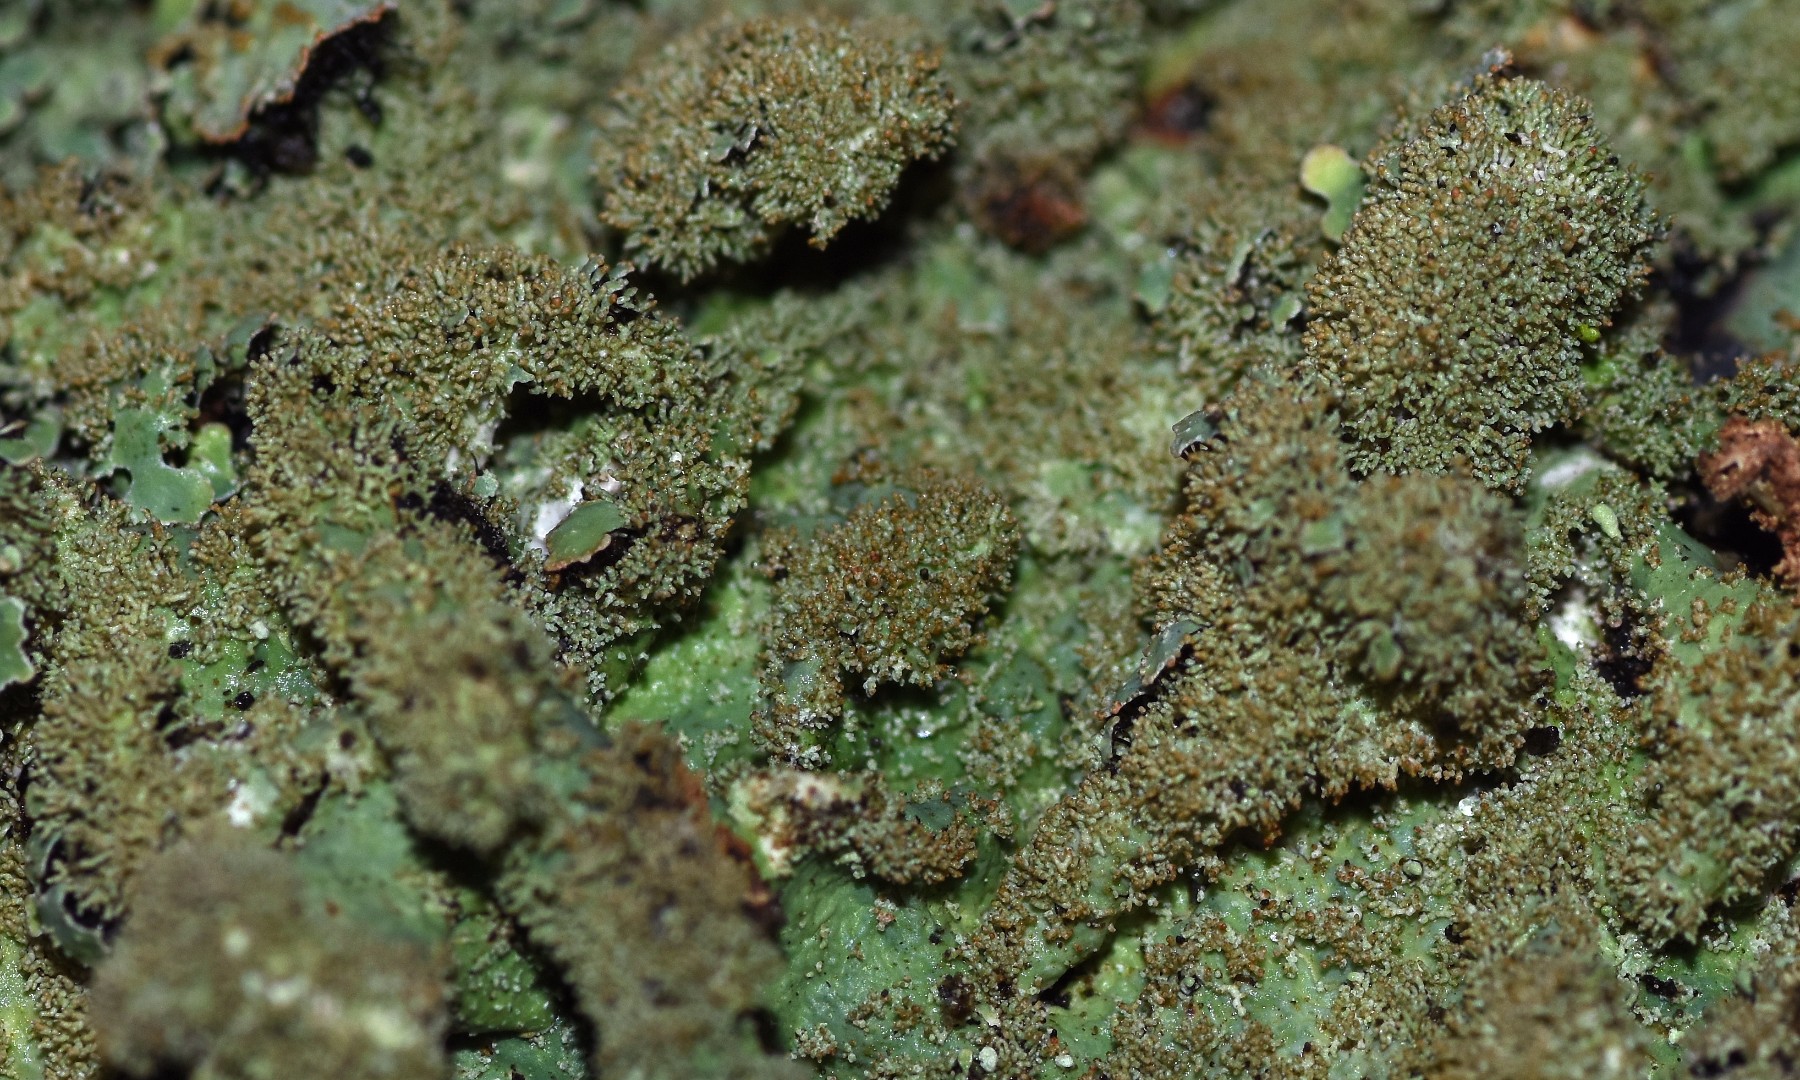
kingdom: Fungi
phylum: Ascomycota
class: Lecanoromycetes
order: Lecanorales
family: Parmeliaceae
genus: Parmelia
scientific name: Parmelia saxatilis
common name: farve-skållav
